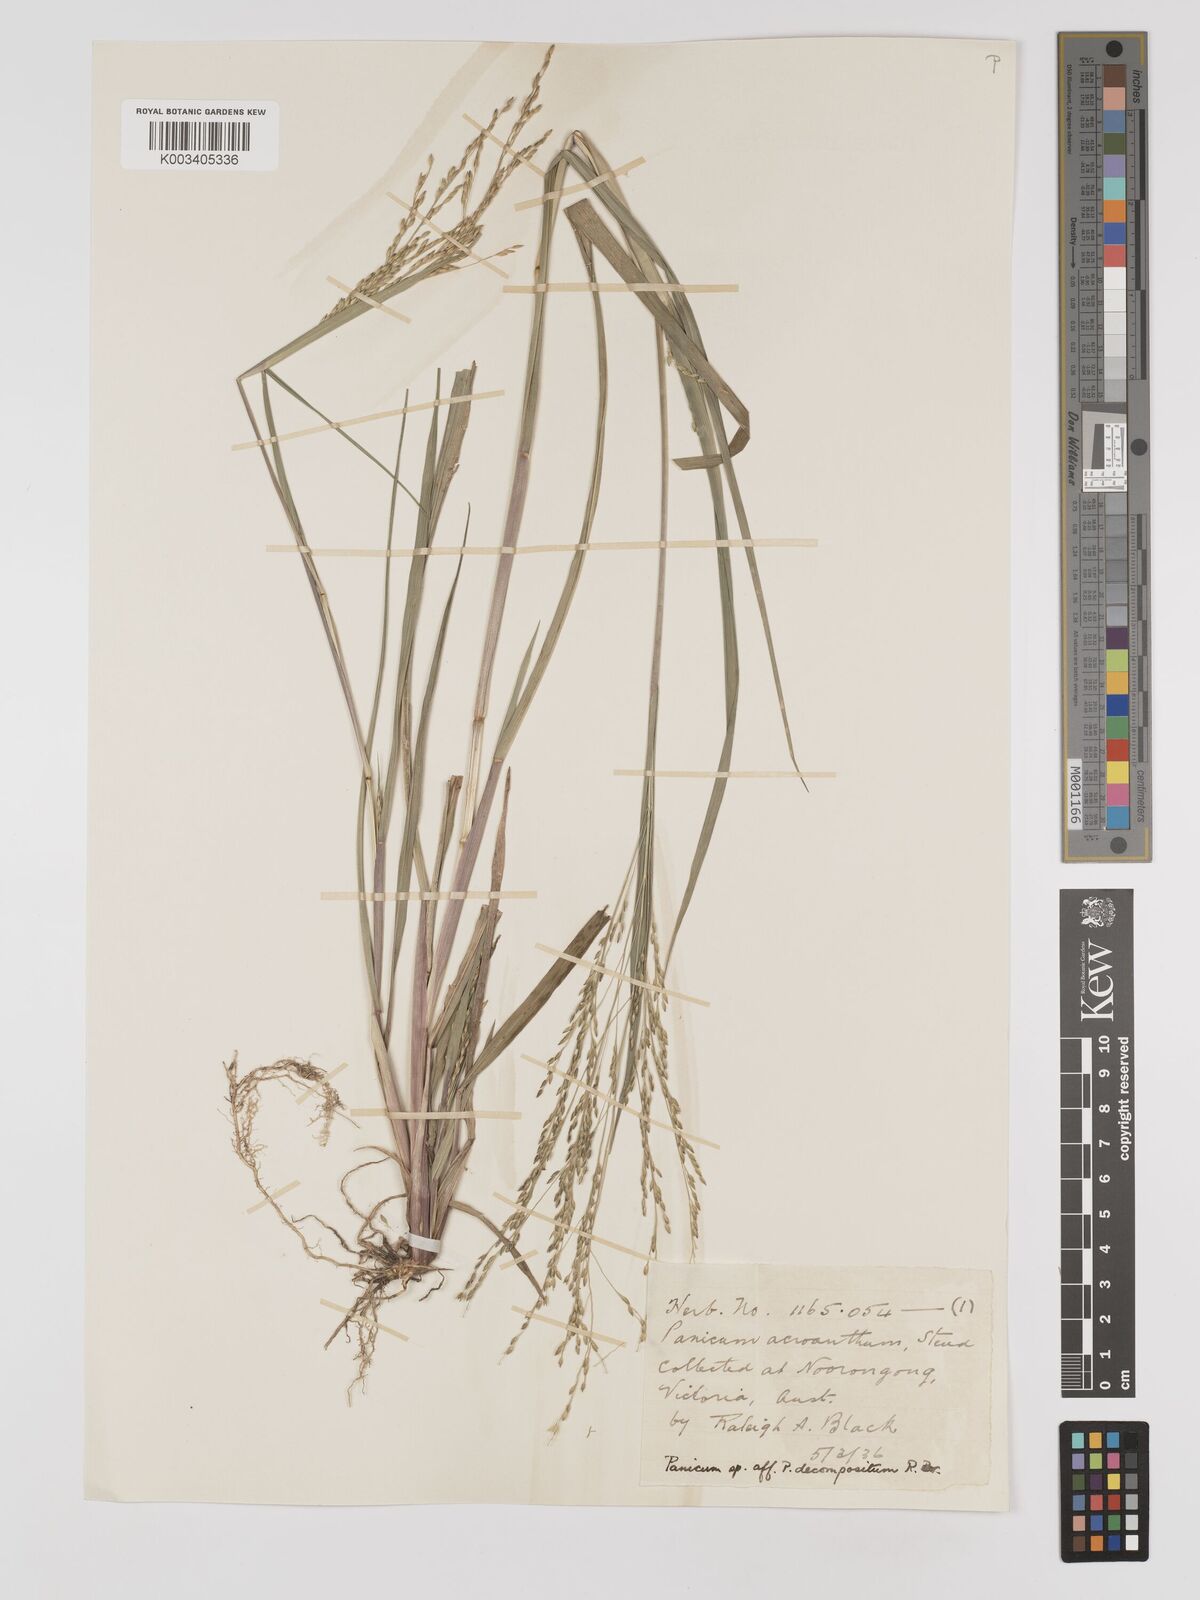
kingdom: Plantae
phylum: Tracheophyta
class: Liliopsida
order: Poales
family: Poaceae
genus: Panicum
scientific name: Panicum coloratum
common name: Kleingrass
